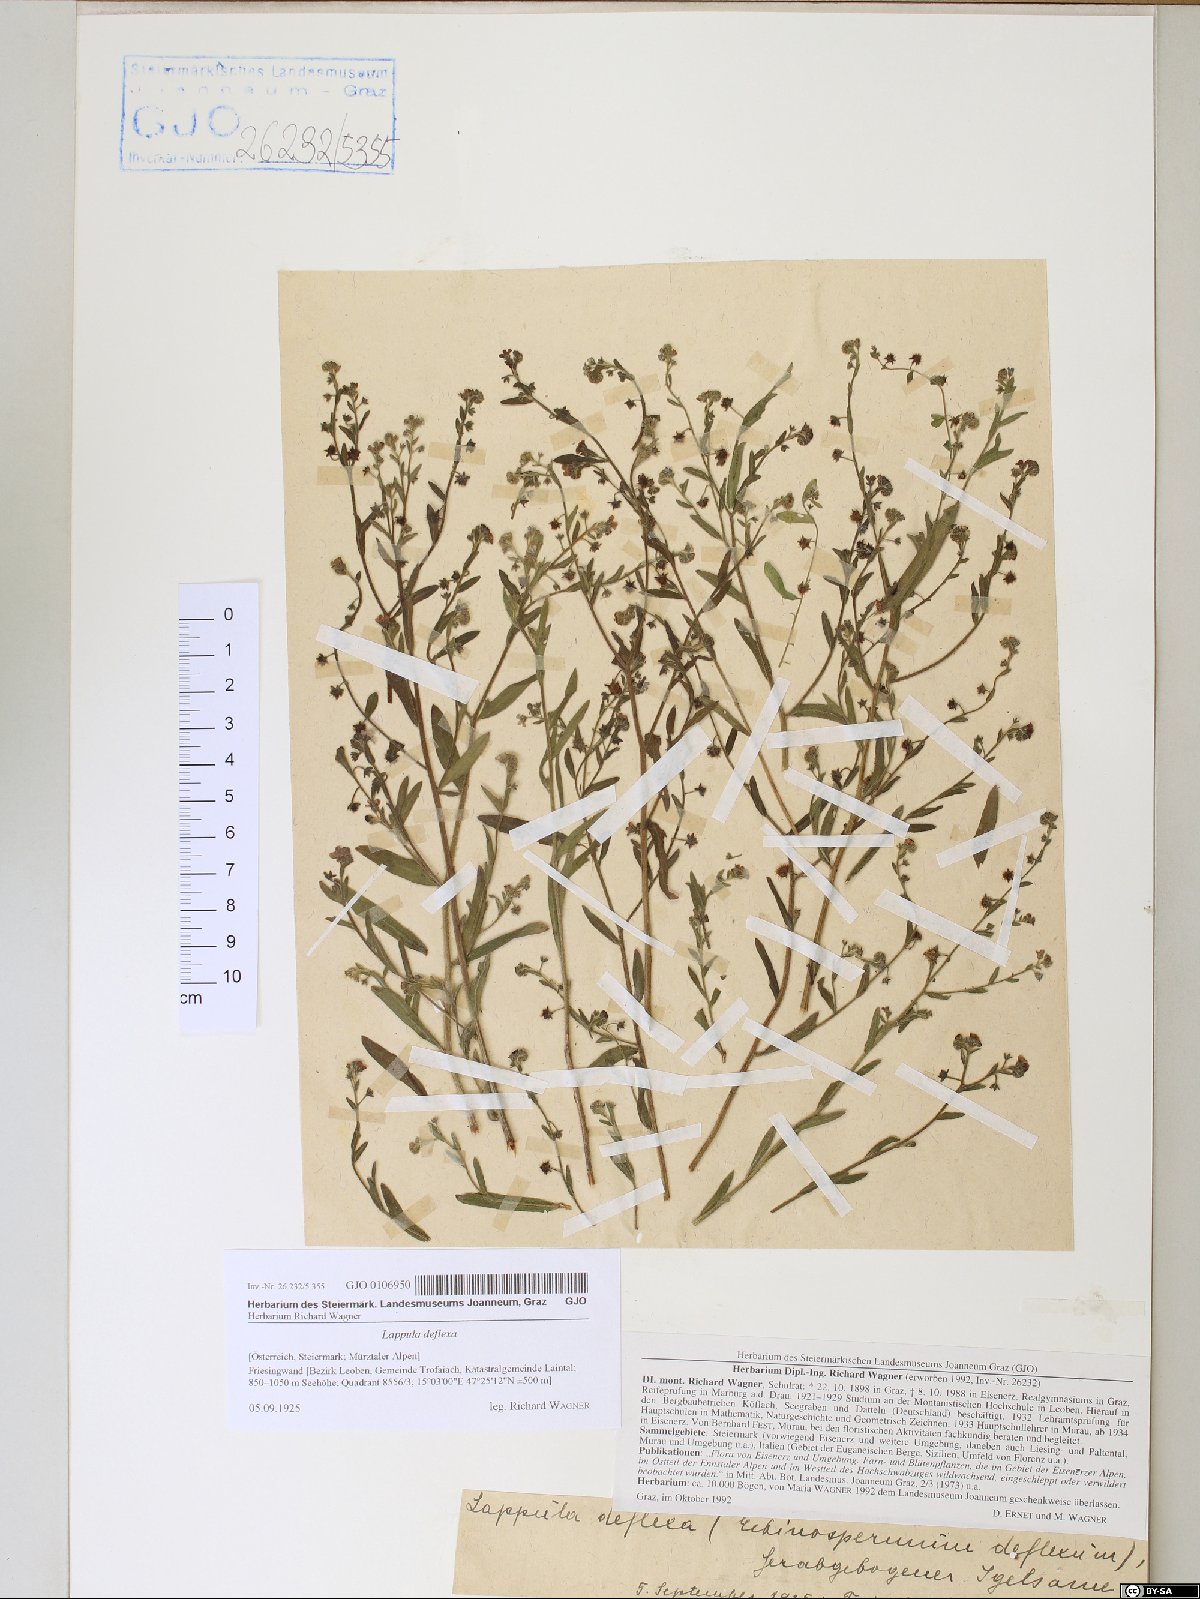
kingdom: Plantae
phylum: Tracheophyta
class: Magnoliopsida
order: Boraginales
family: Boraginaceae
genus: Hackelia
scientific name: Hackelia deflexa
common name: Nodding stickseed
